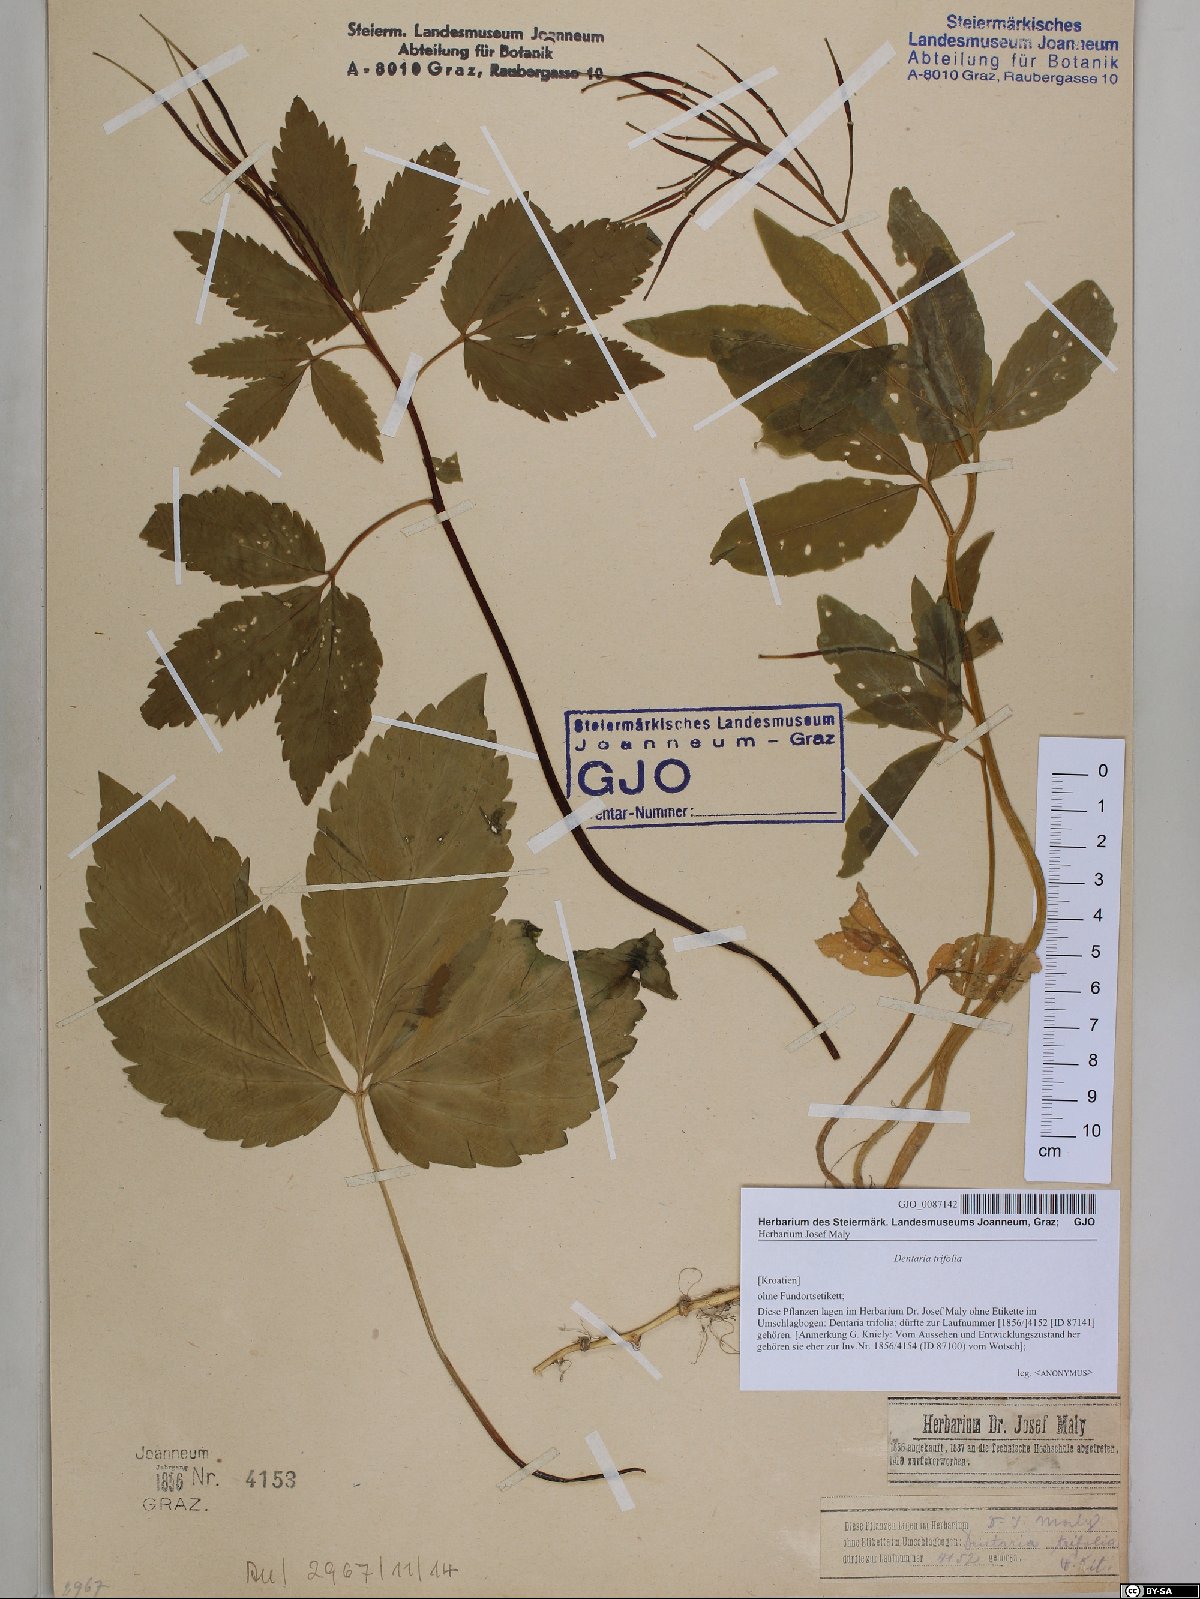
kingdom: Plantae
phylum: Tracheophyta
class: Magnoliopsida
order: Brassicales
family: Brassicaceae
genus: Cardamine
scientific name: Cardamine waldsteinii
